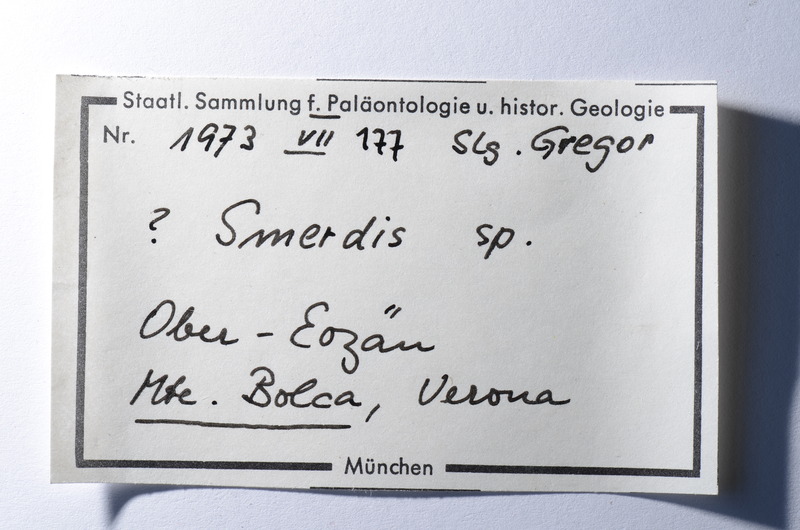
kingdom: Animalia
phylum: Arthropoda
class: Malacostraca
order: Stomatopoda
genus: Smerdis
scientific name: Smerdis
